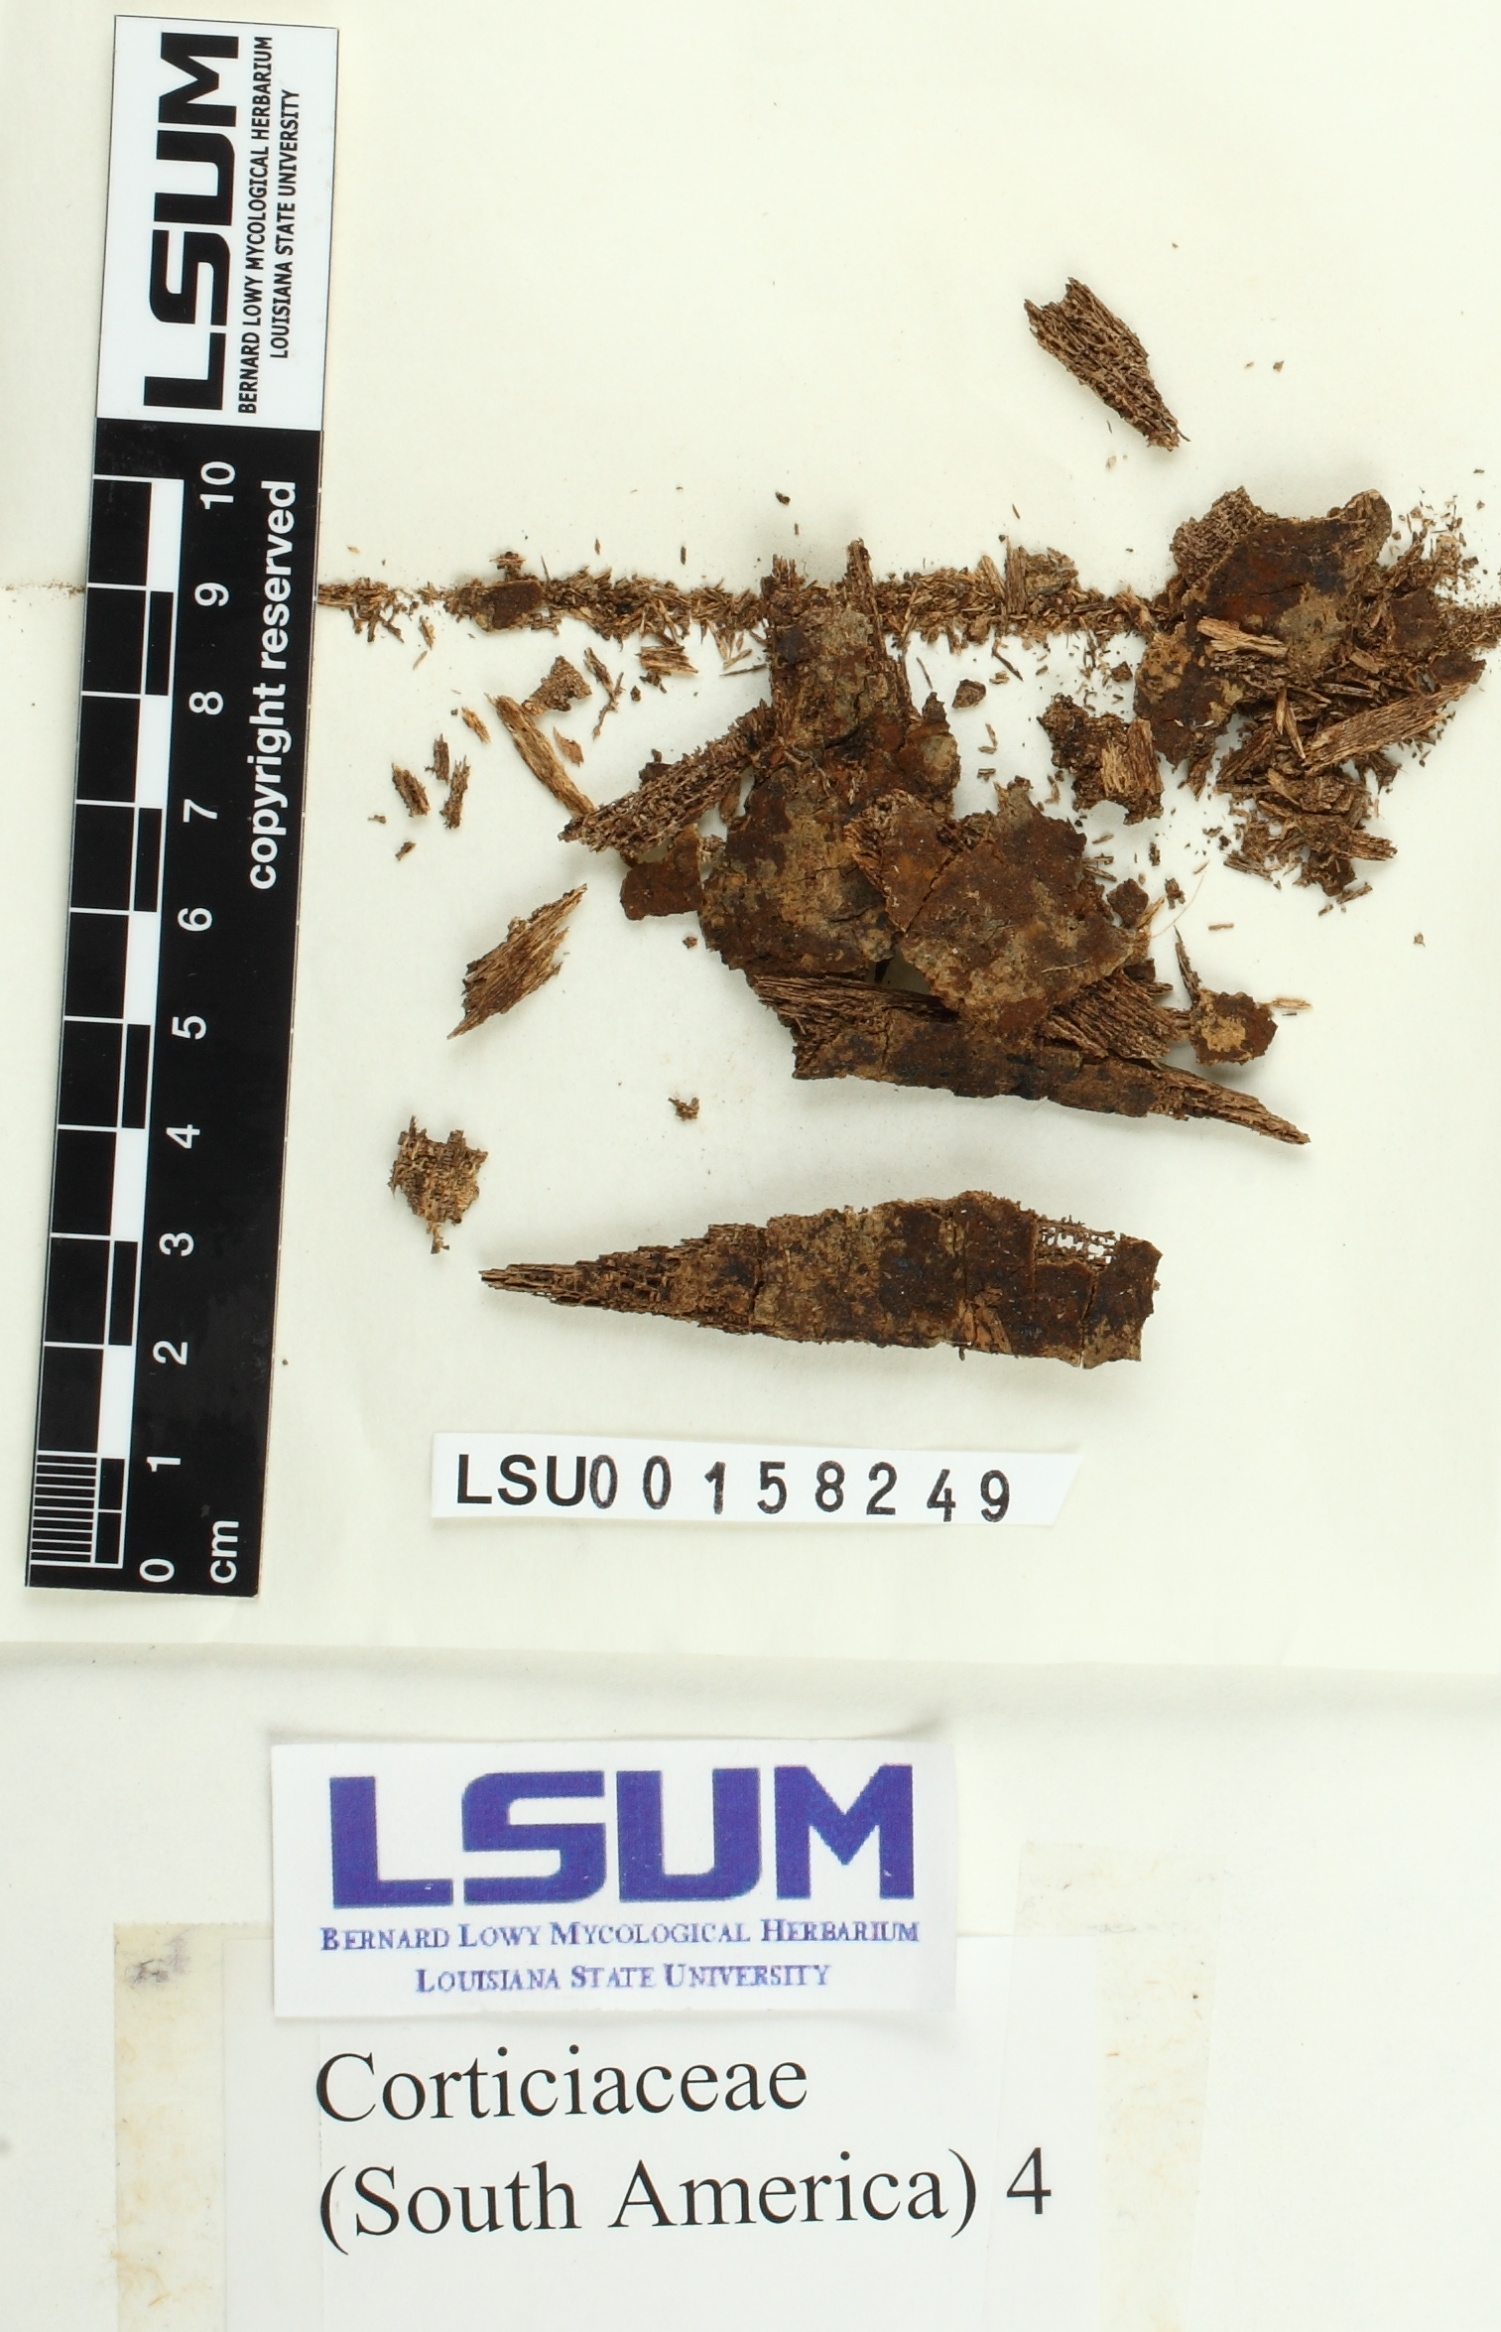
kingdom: Fungi
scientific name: Fungi
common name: Fungi
